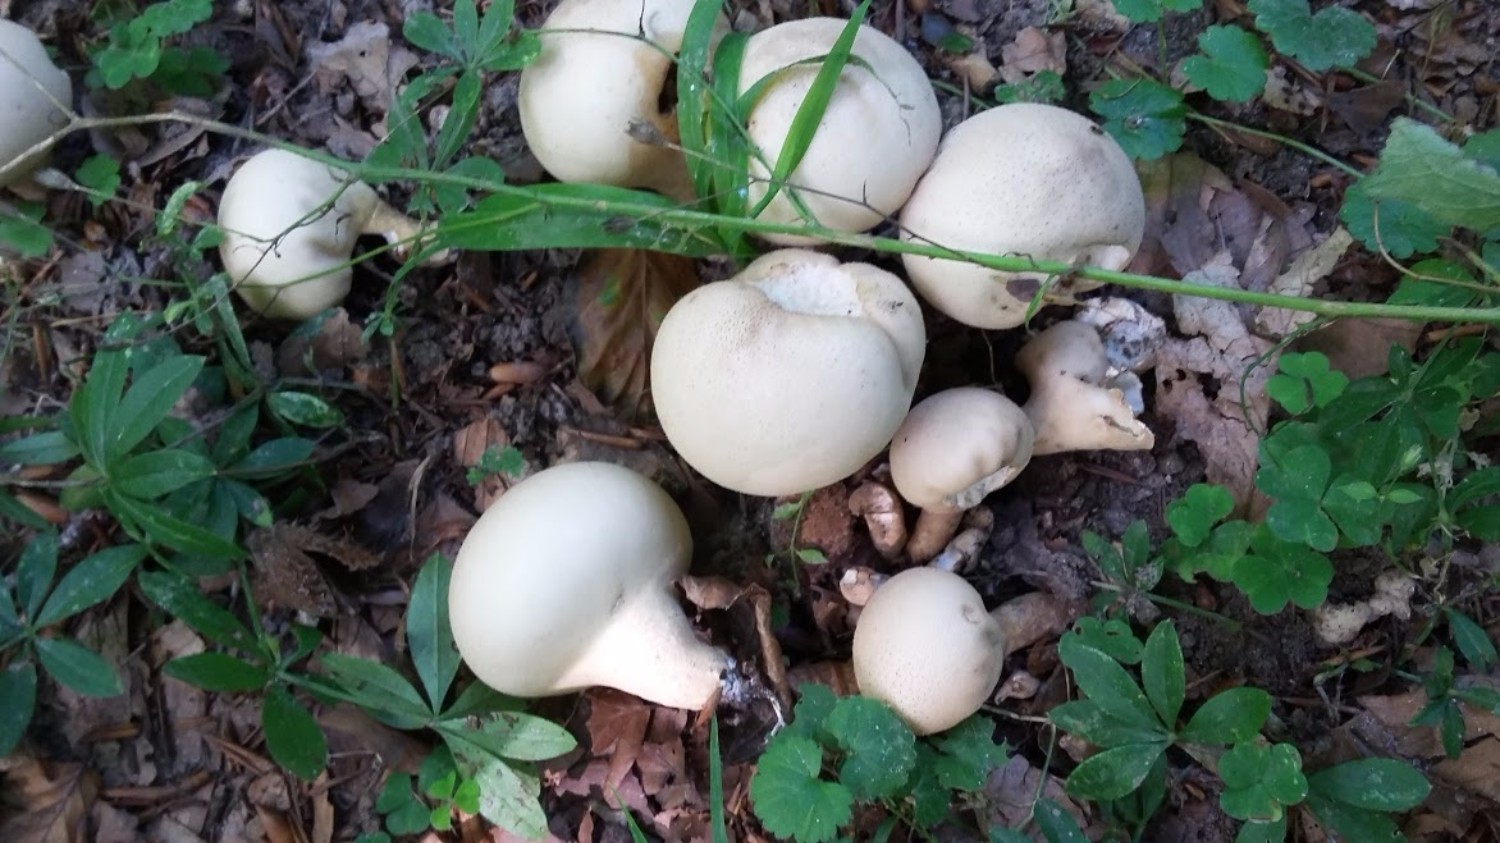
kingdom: Fungi
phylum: Basidiomycota
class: Agaricomycetes
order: Agaricales
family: Lycoperdaceae
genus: Apioperdon
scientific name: Apioperdon pyriforme
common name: pære-støvbold
